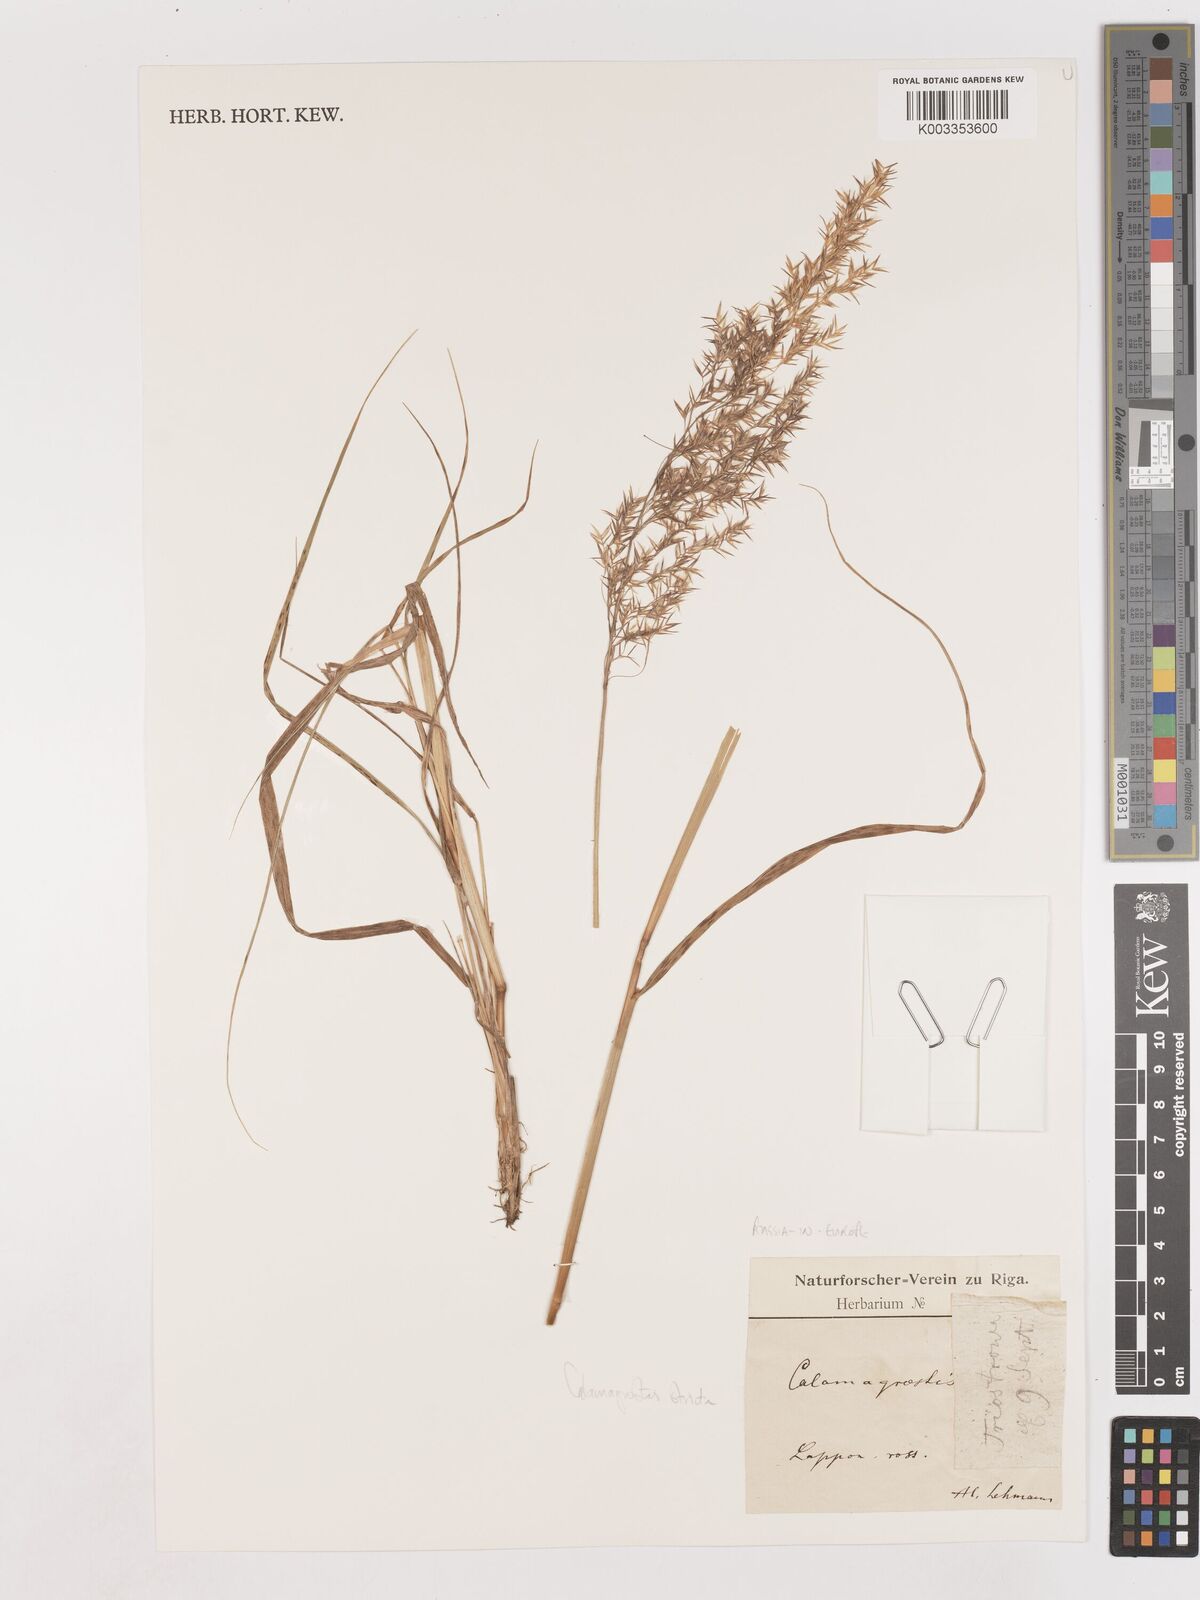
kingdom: Plantae
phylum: Tracheophyta
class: Liliopsida
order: Poales
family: Poaceae
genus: Cinnagrostis
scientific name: Cinnagrostis recta
